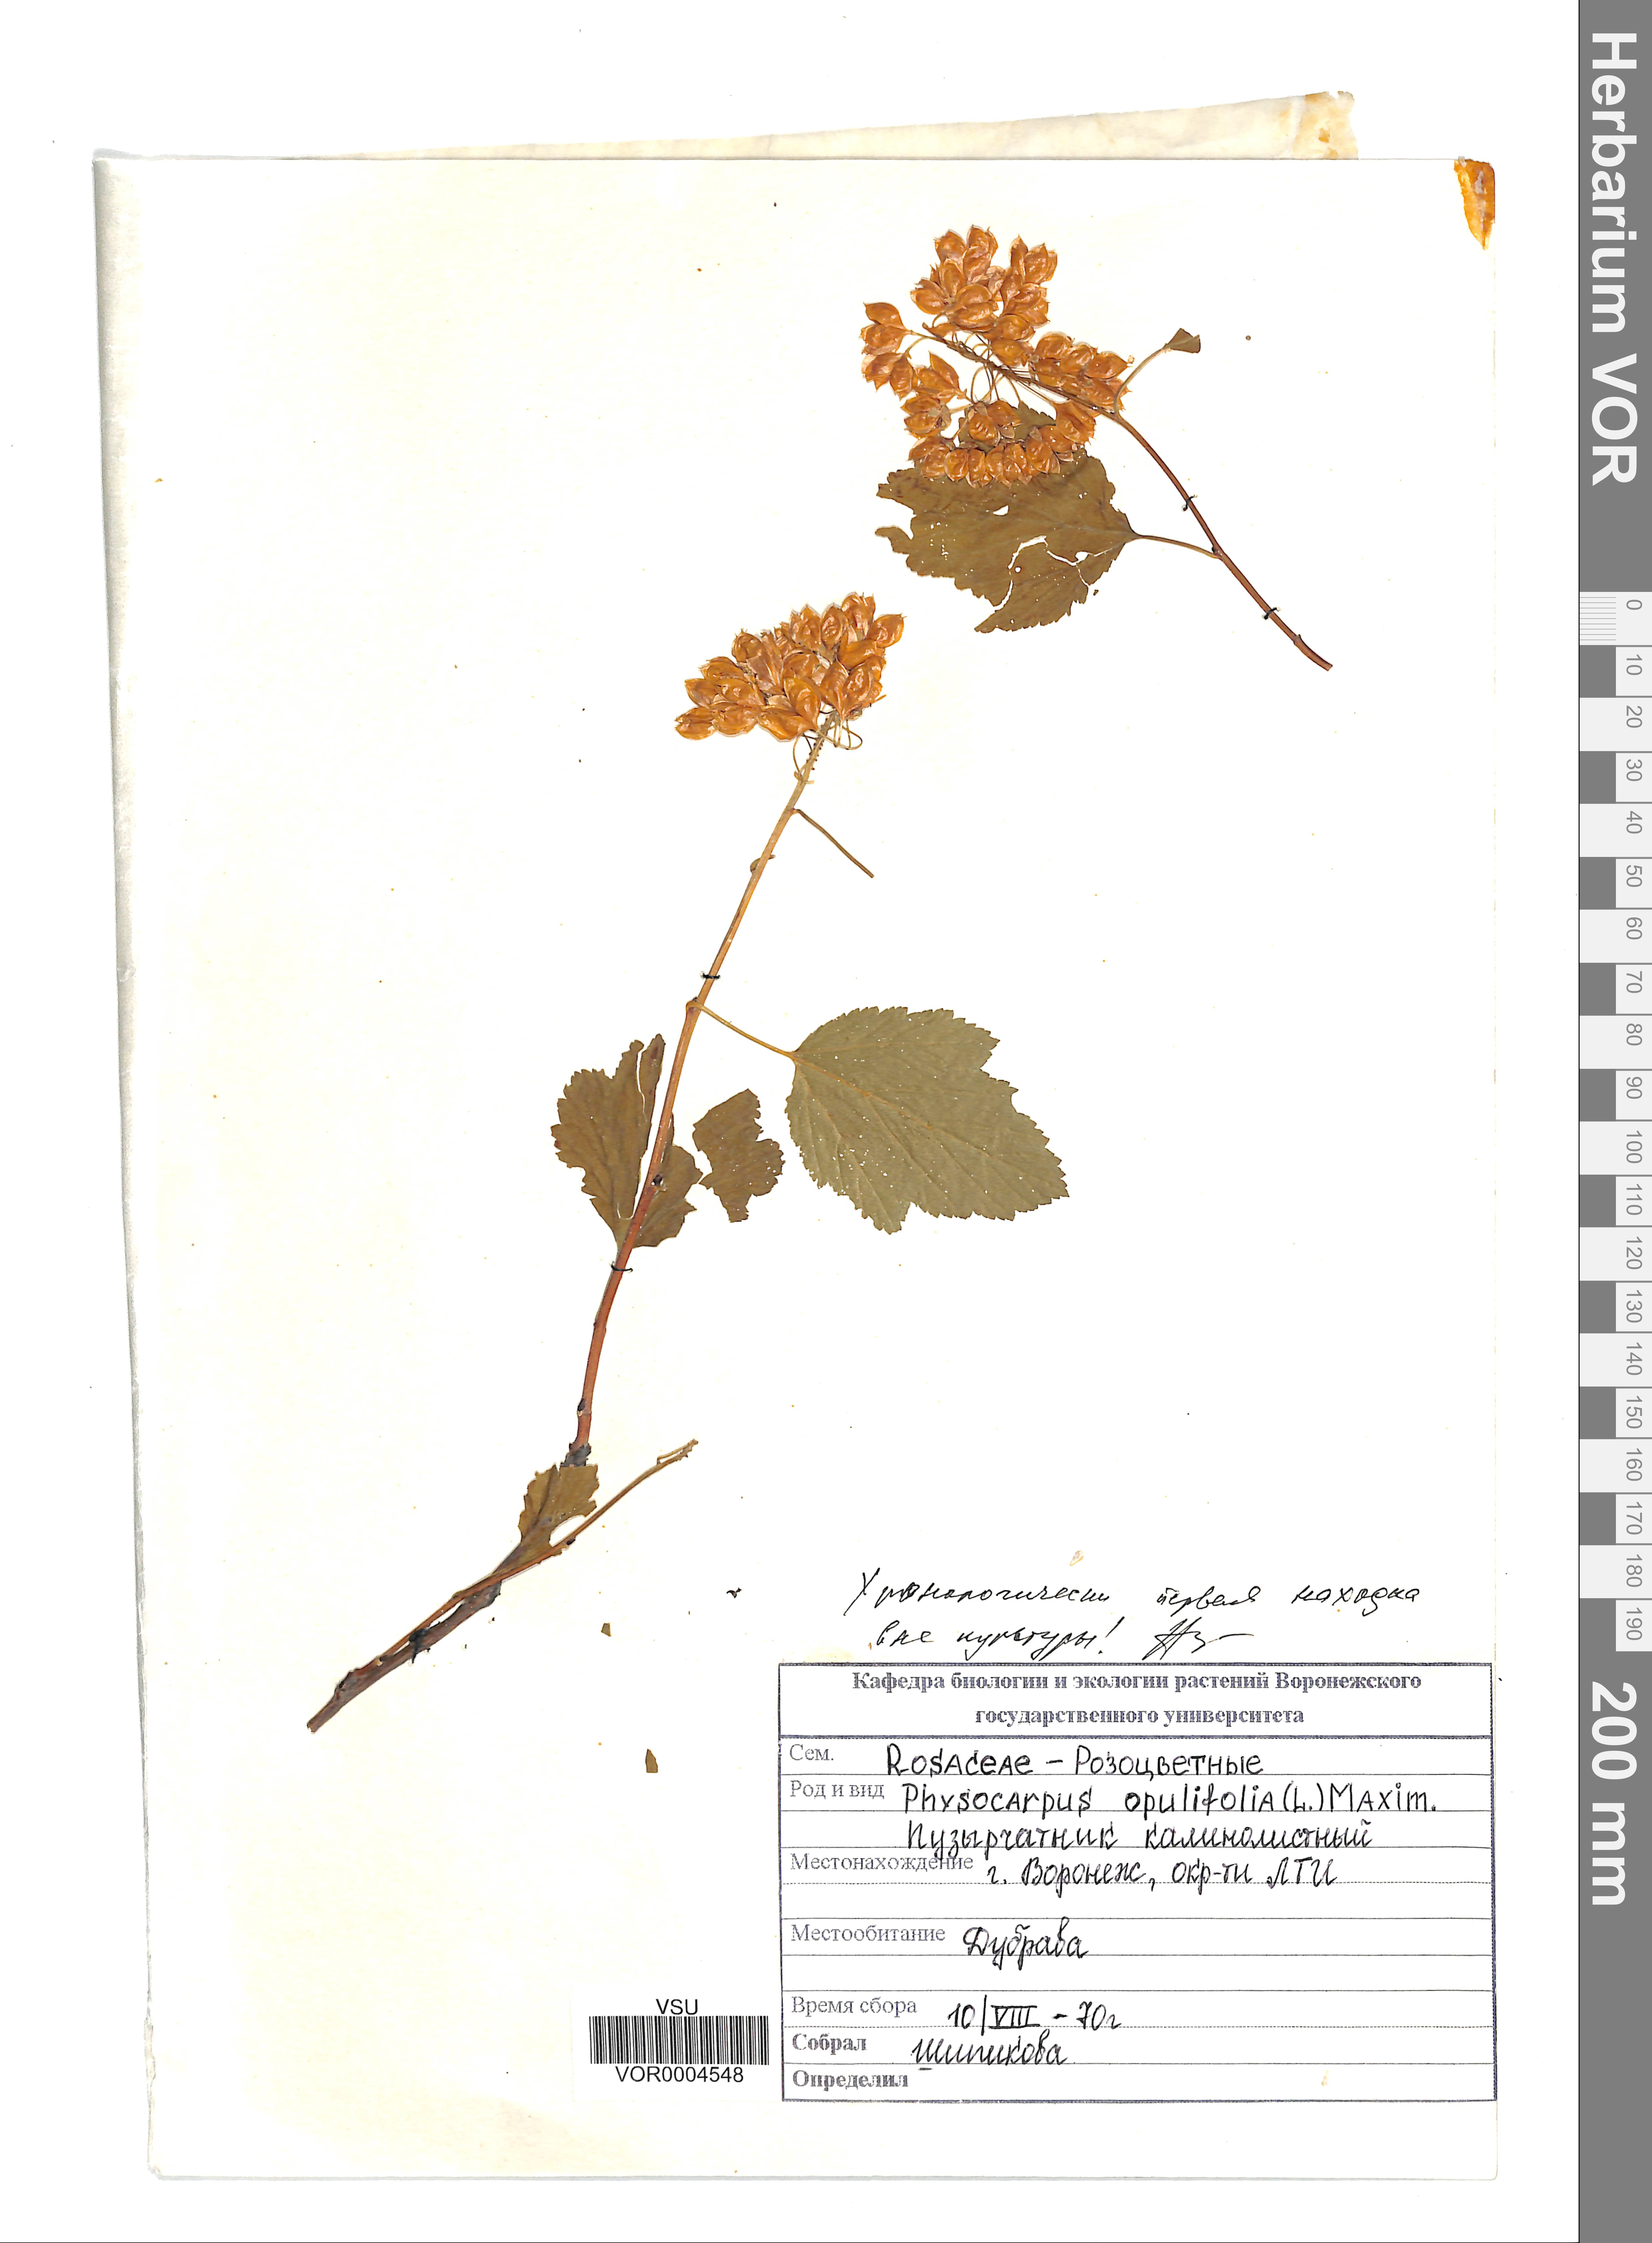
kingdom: Plantae
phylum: Tracheophyta
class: Magnoliopsida
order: Rosales
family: Rosaceae
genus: Physocarpus
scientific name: Physocarpus opulifolius
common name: Ninebark
